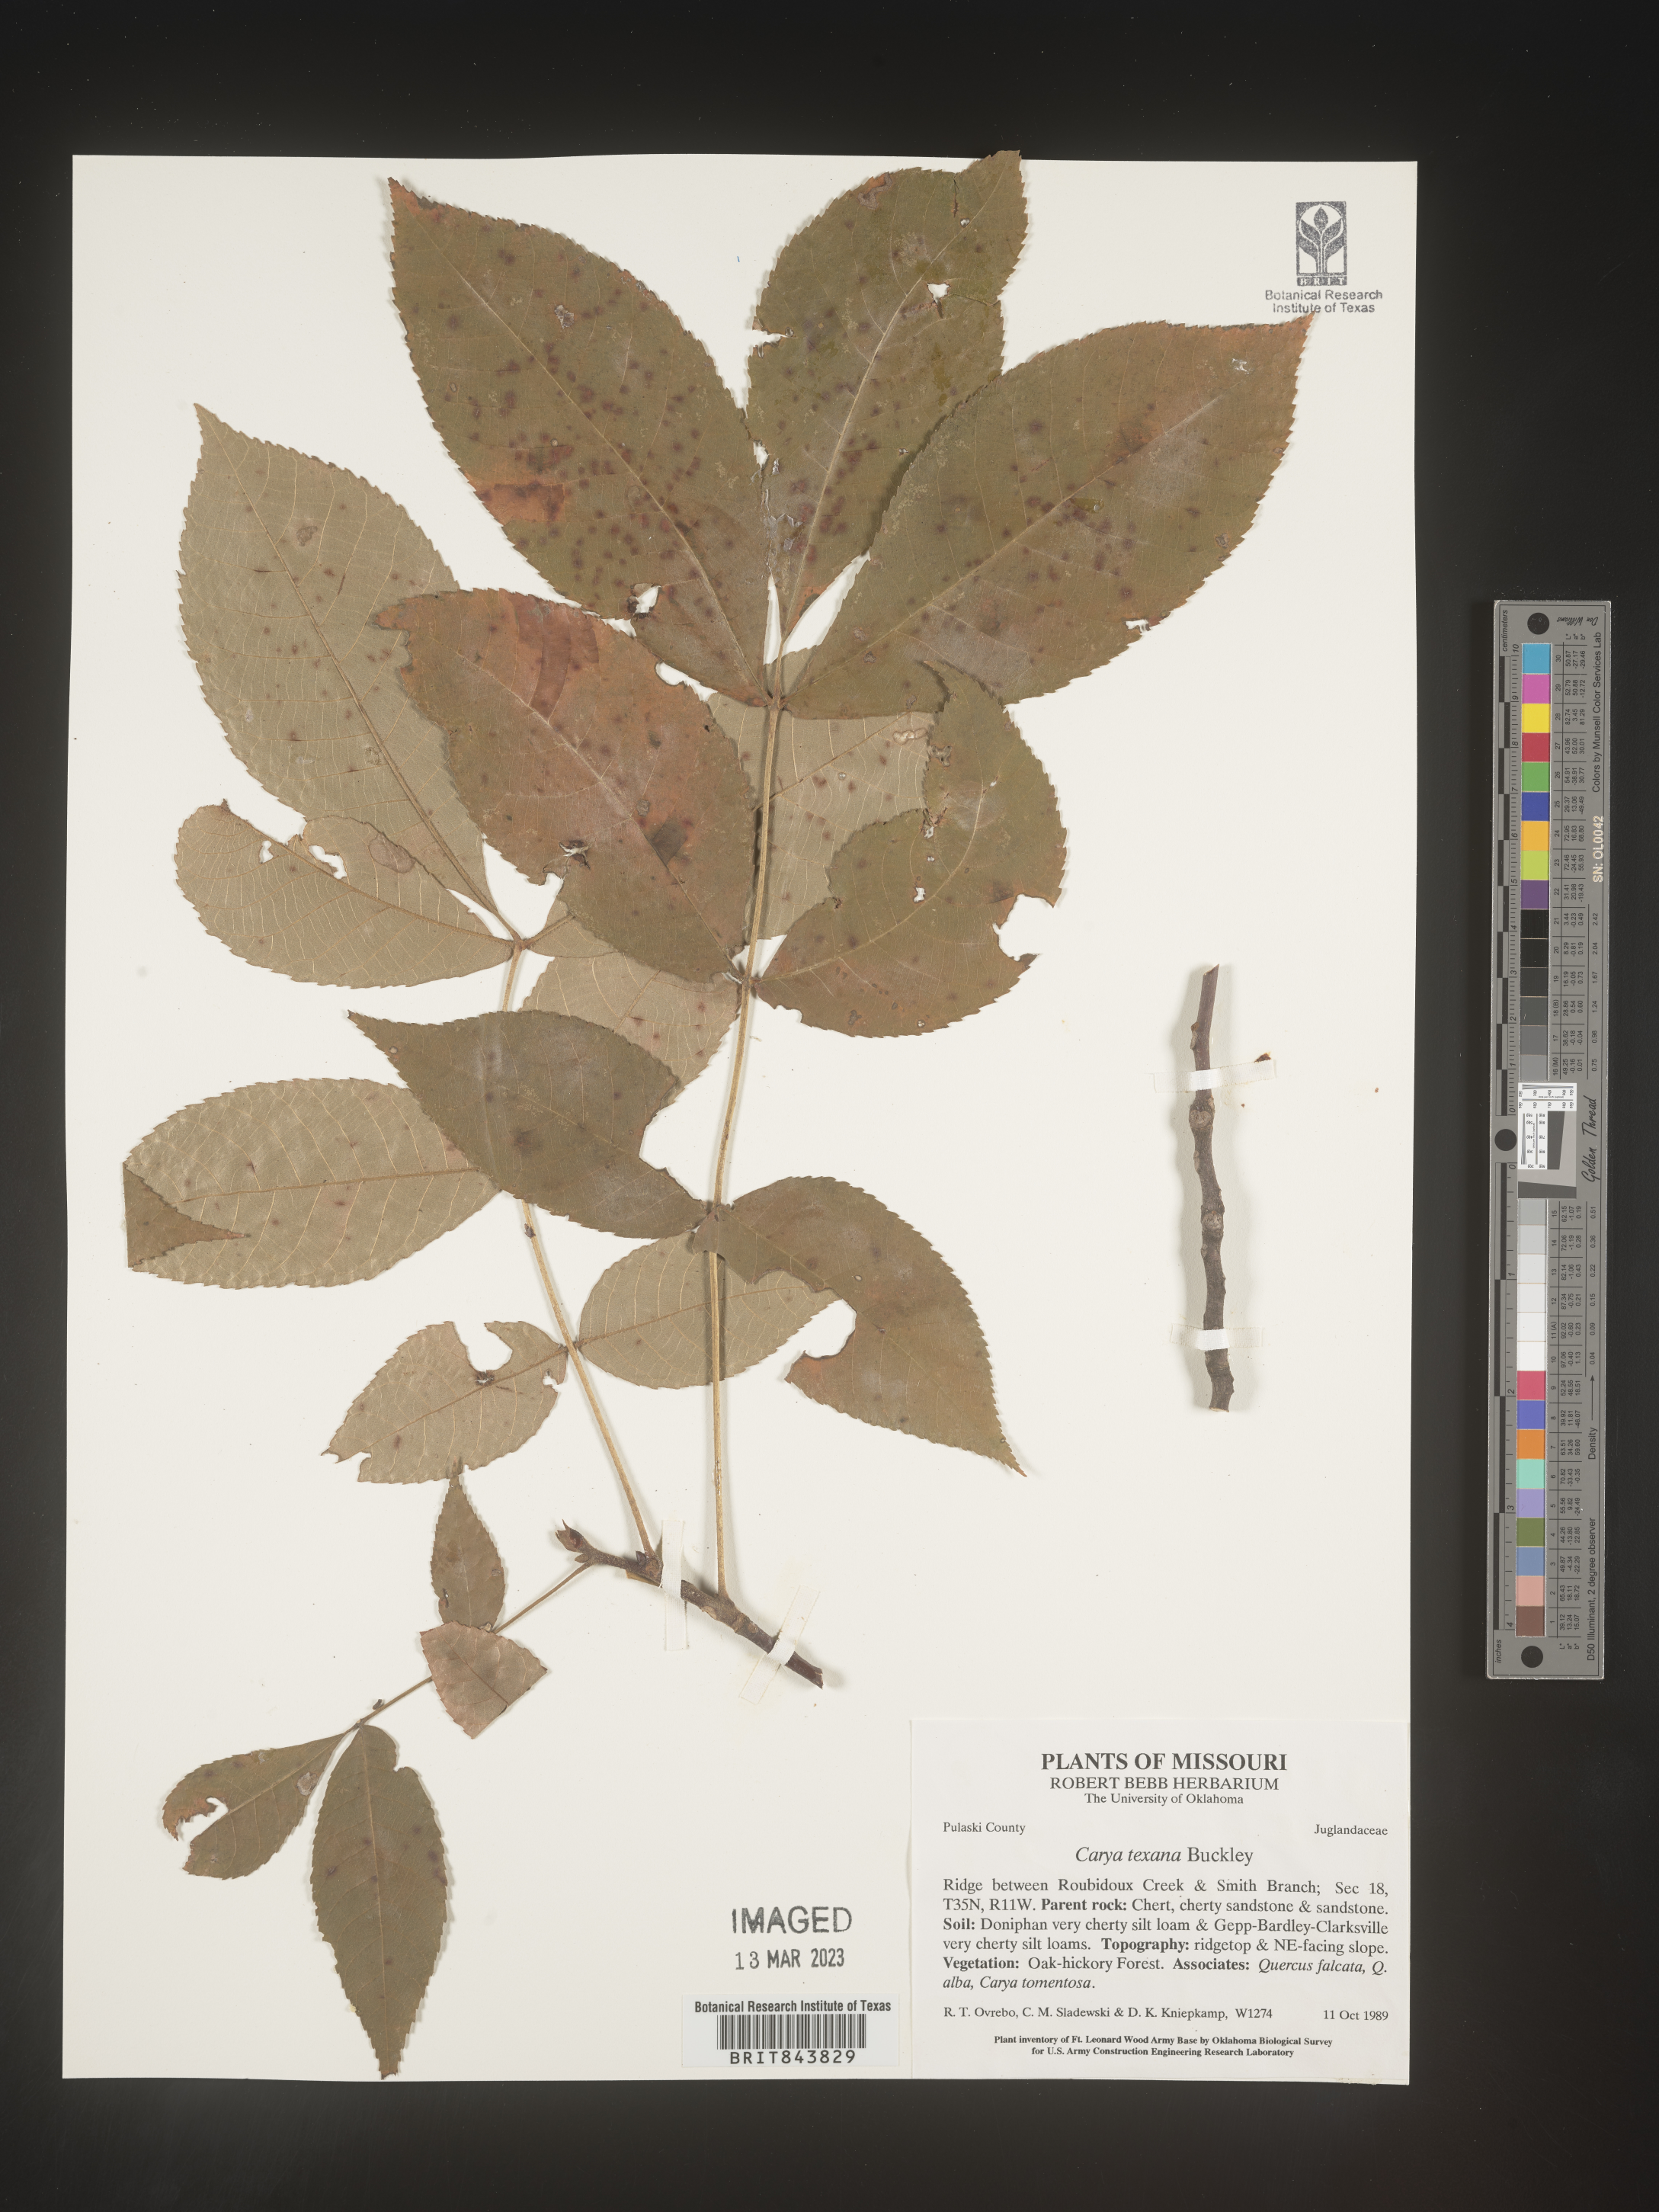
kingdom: Plantae
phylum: Tracheophyta
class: Magnoliopsida
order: Fagales
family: Juglandaceae
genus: Carya
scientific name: Carya texana
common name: Black hickory
